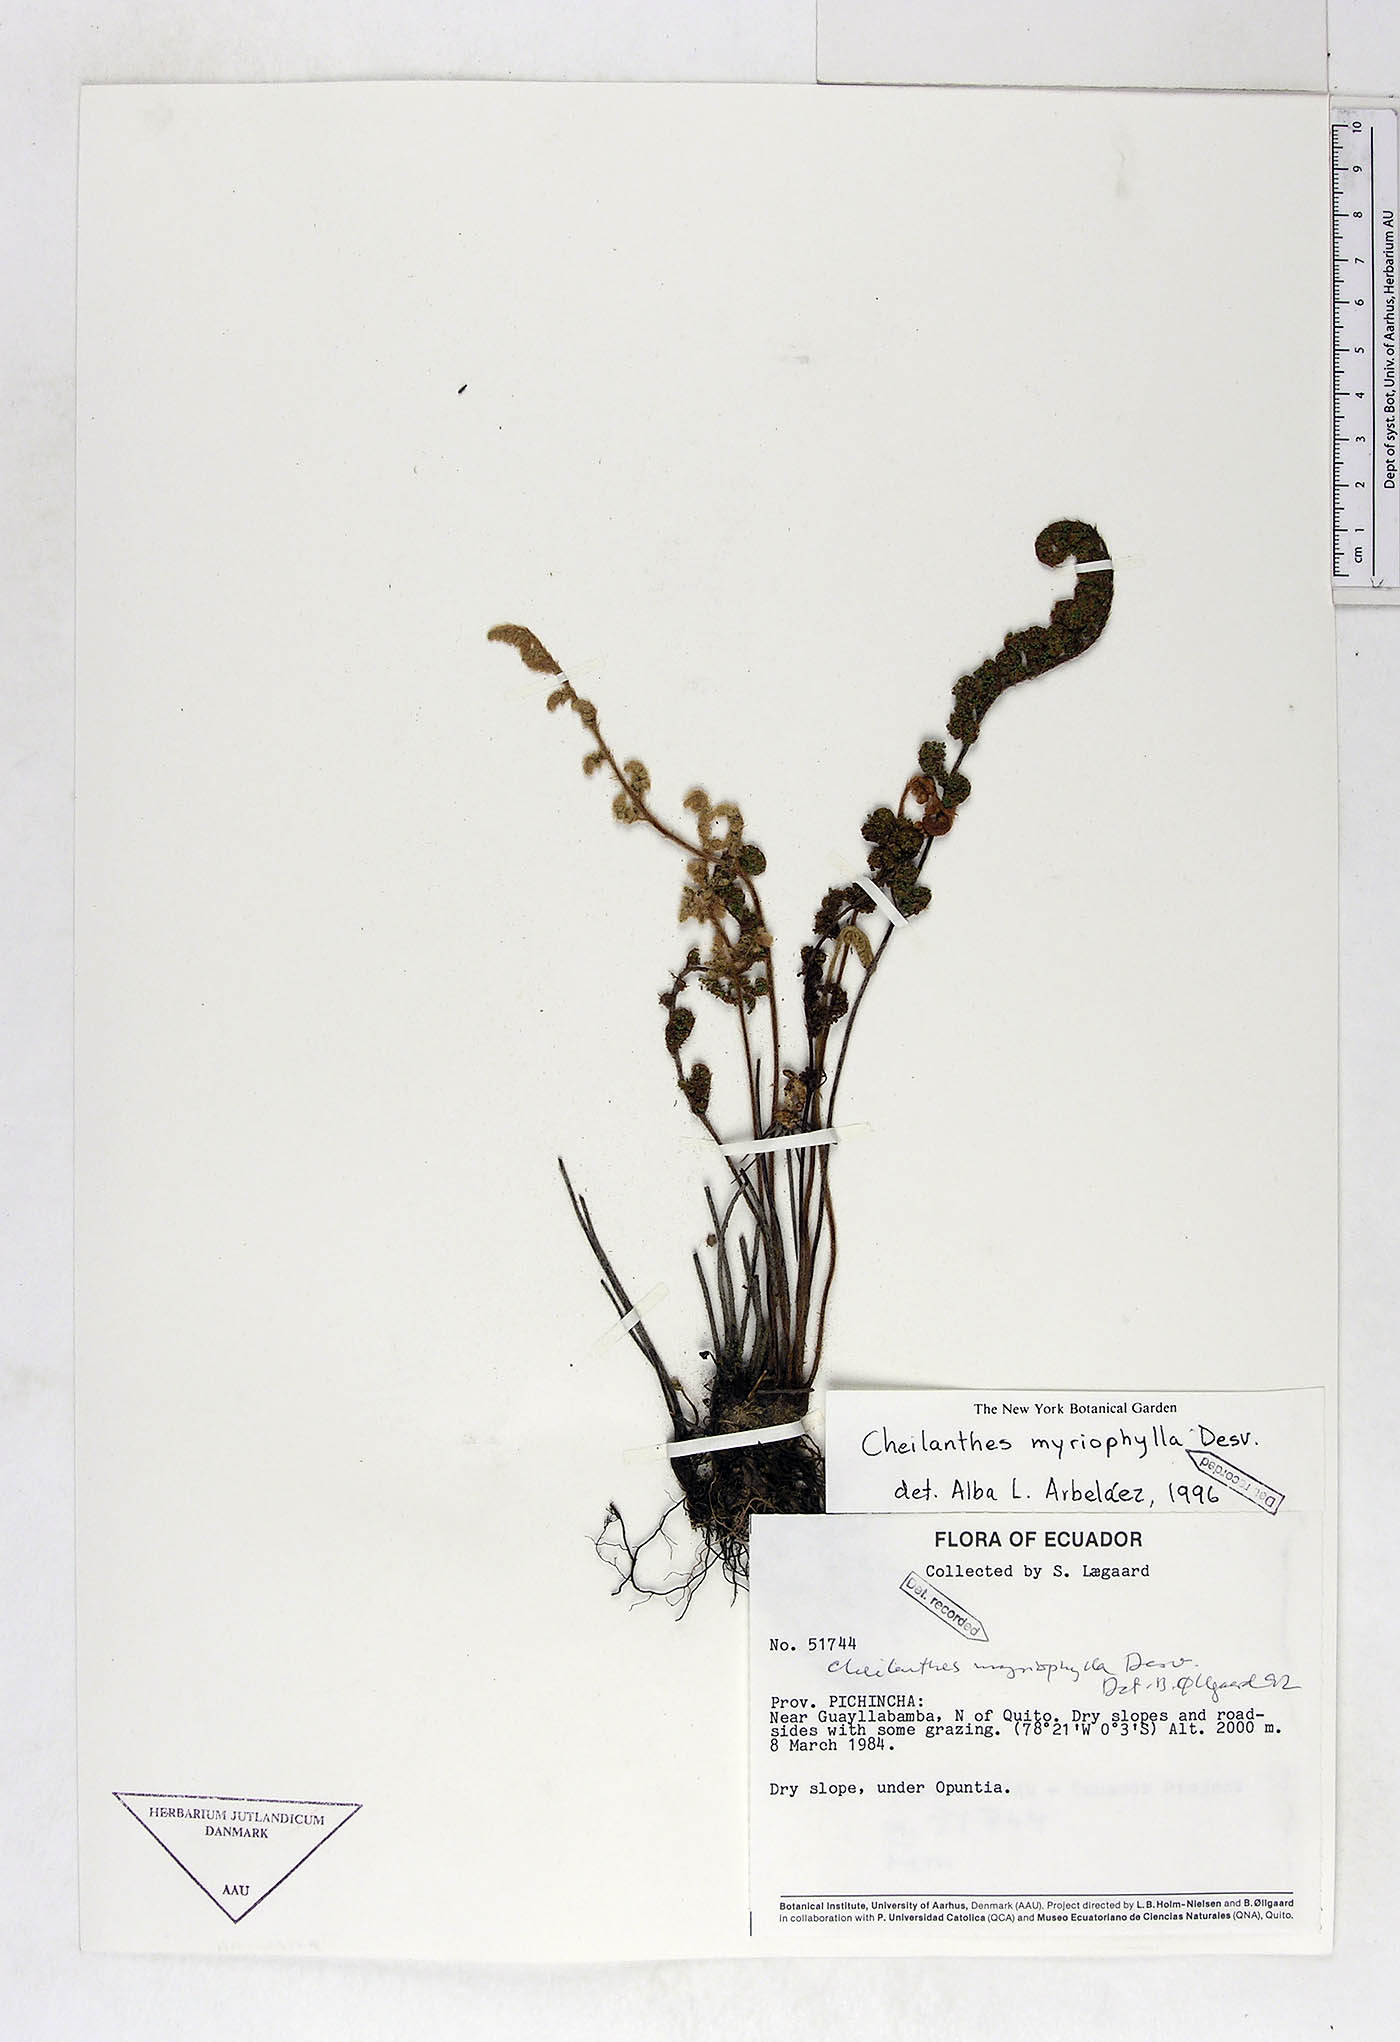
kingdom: Plantae
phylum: Tracheophyta
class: Polypodiopsida
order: Polypodiales
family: Pteridaceae
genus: Myriopteris
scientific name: Myriopteris myriophylla
